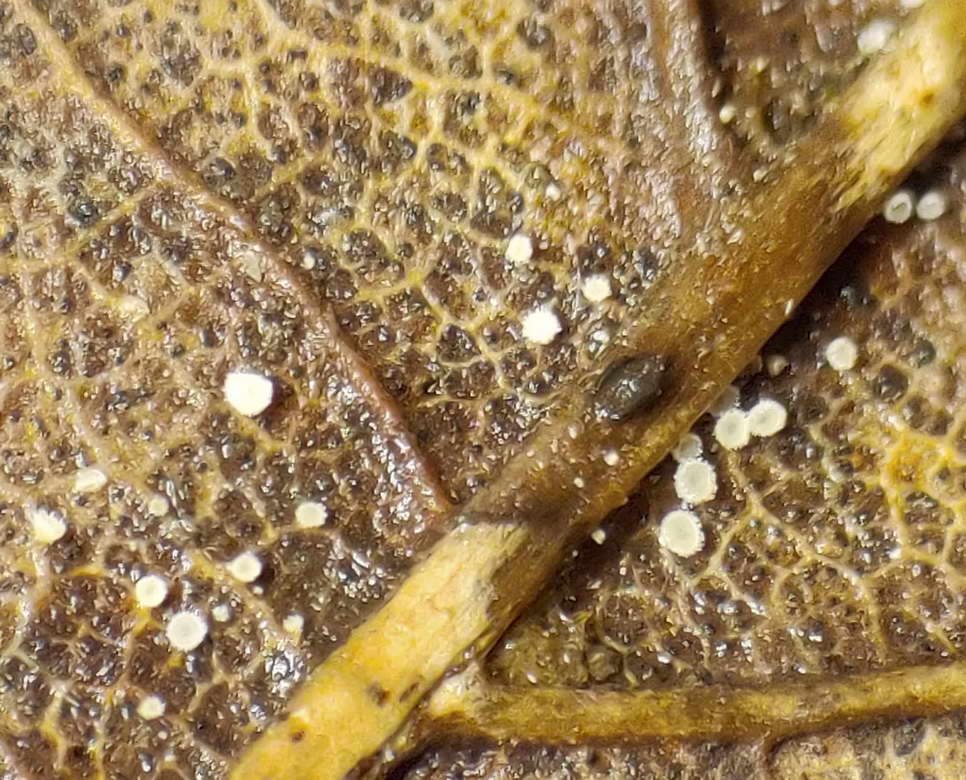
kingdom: Fungi
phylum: Ascomycota
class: Leotiomycetes
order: Helotiales
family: Lachnaceae
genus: Lachnum
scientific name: Lachnum rhytismatis
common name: blad-frynseskive
